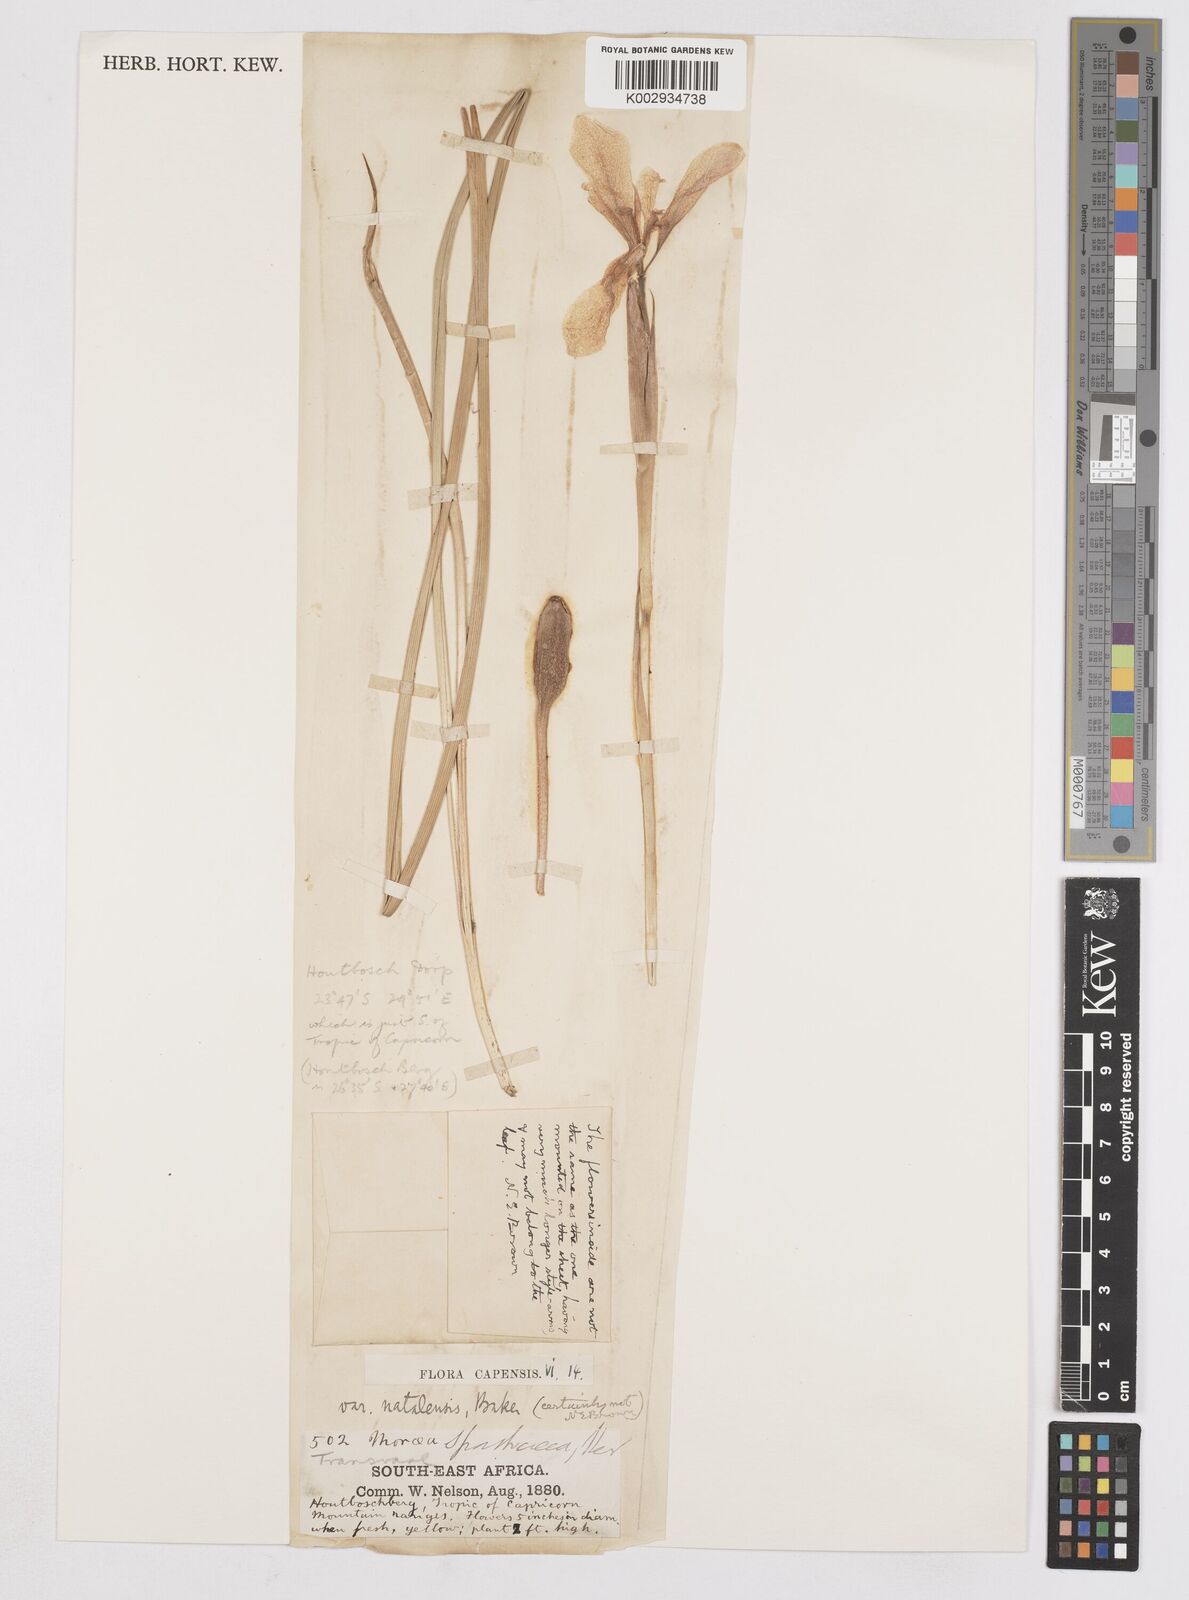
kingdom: Plantae
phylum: Tracheophyta
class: Liliopsida
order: Asparagales
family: Iridaceae
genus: Moraea
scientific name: Moraea moggii
